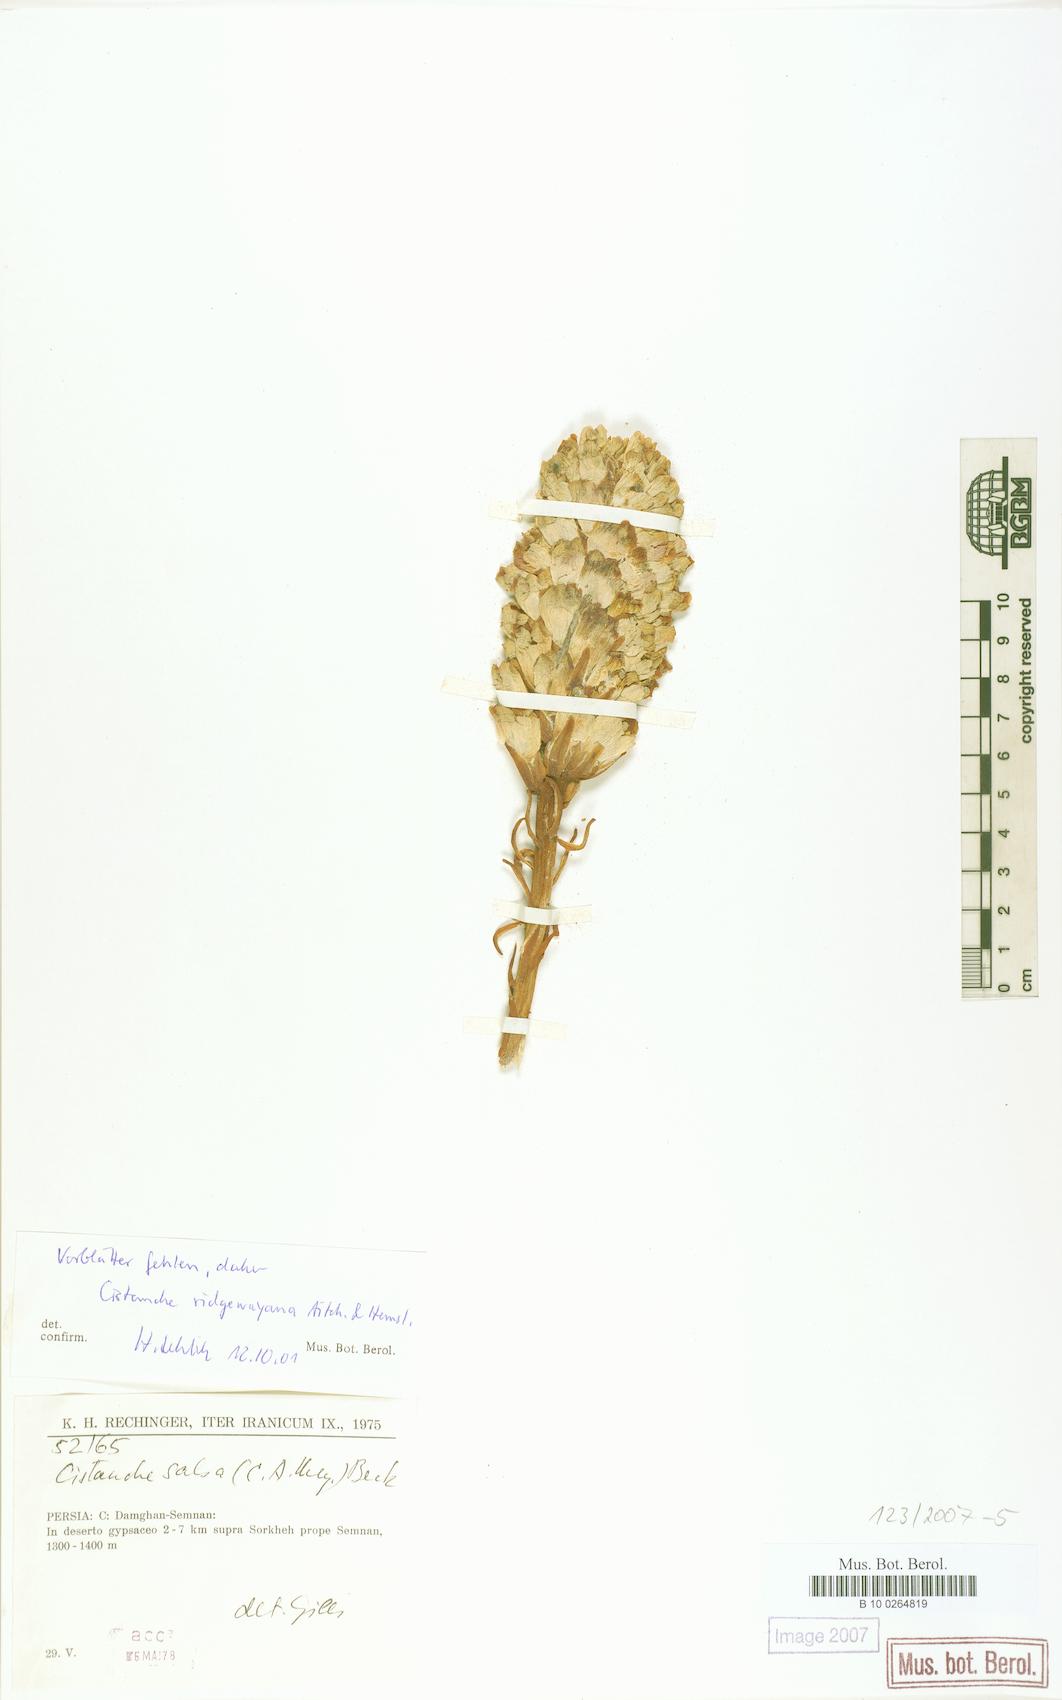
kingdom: Plantae
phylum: Tracheophyta
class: Magnoliopsida
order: Lamiales
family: Orobanchaceae
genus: Cistanche
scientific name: Cistanche persica
